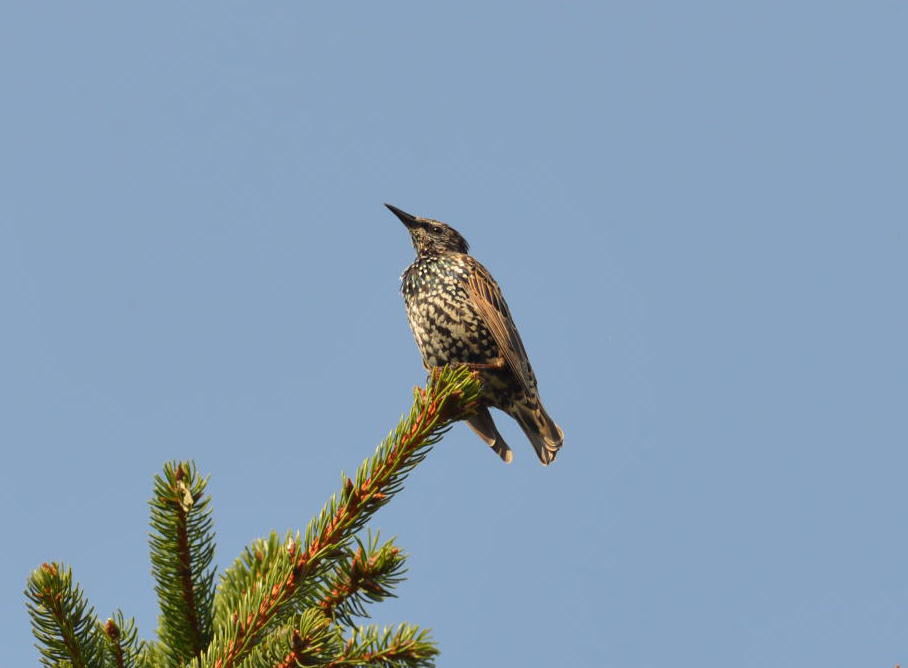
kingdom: Animalia
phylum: Chordata
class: Aves
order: Passeriformes
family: Sturnidae
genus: Sturnus
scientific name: Sturnus vulgaris
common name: Common starling
